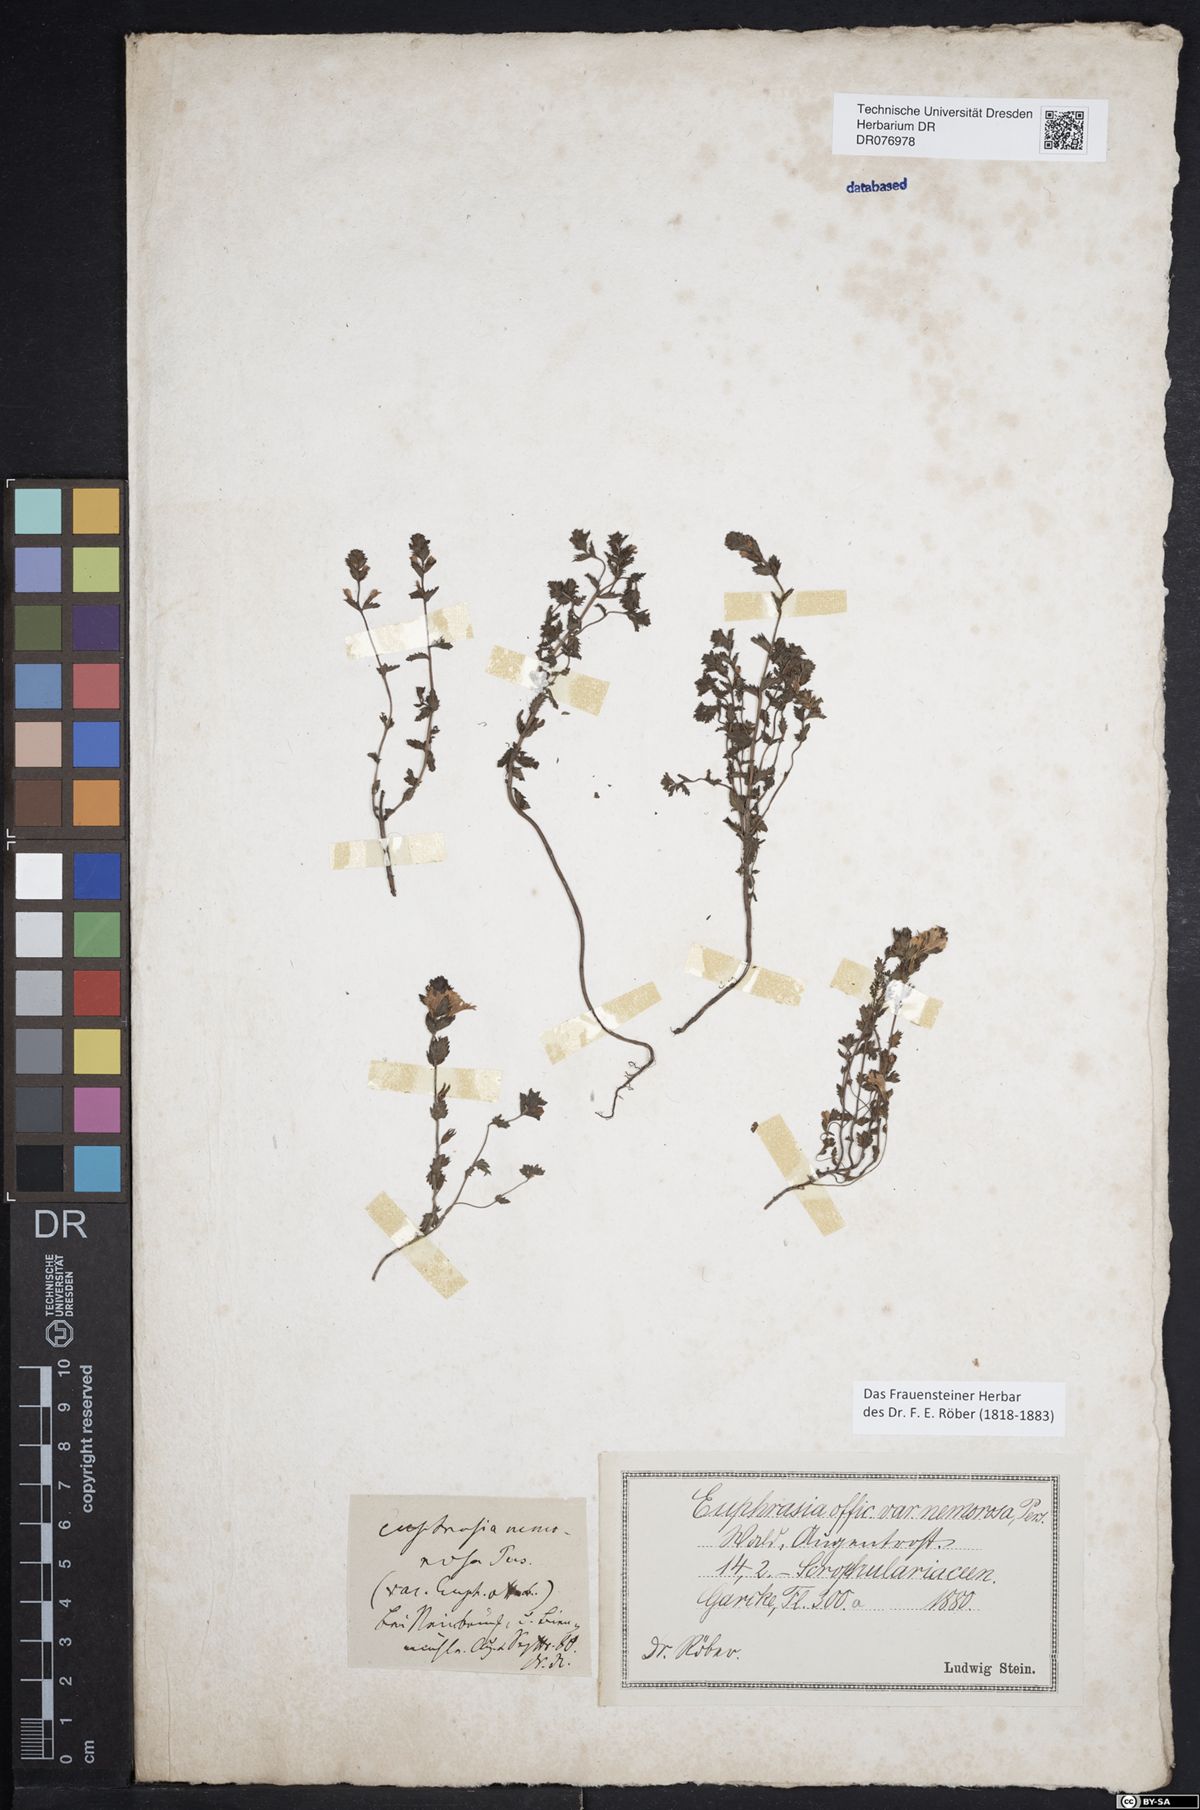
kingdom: Plantae
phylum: Tracheophyta
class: Magnoliopsida
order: Lamiales
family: Orobanchaceae
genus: Euphrasia
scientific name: Euphrasia nemorosa
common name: Common eyebright
